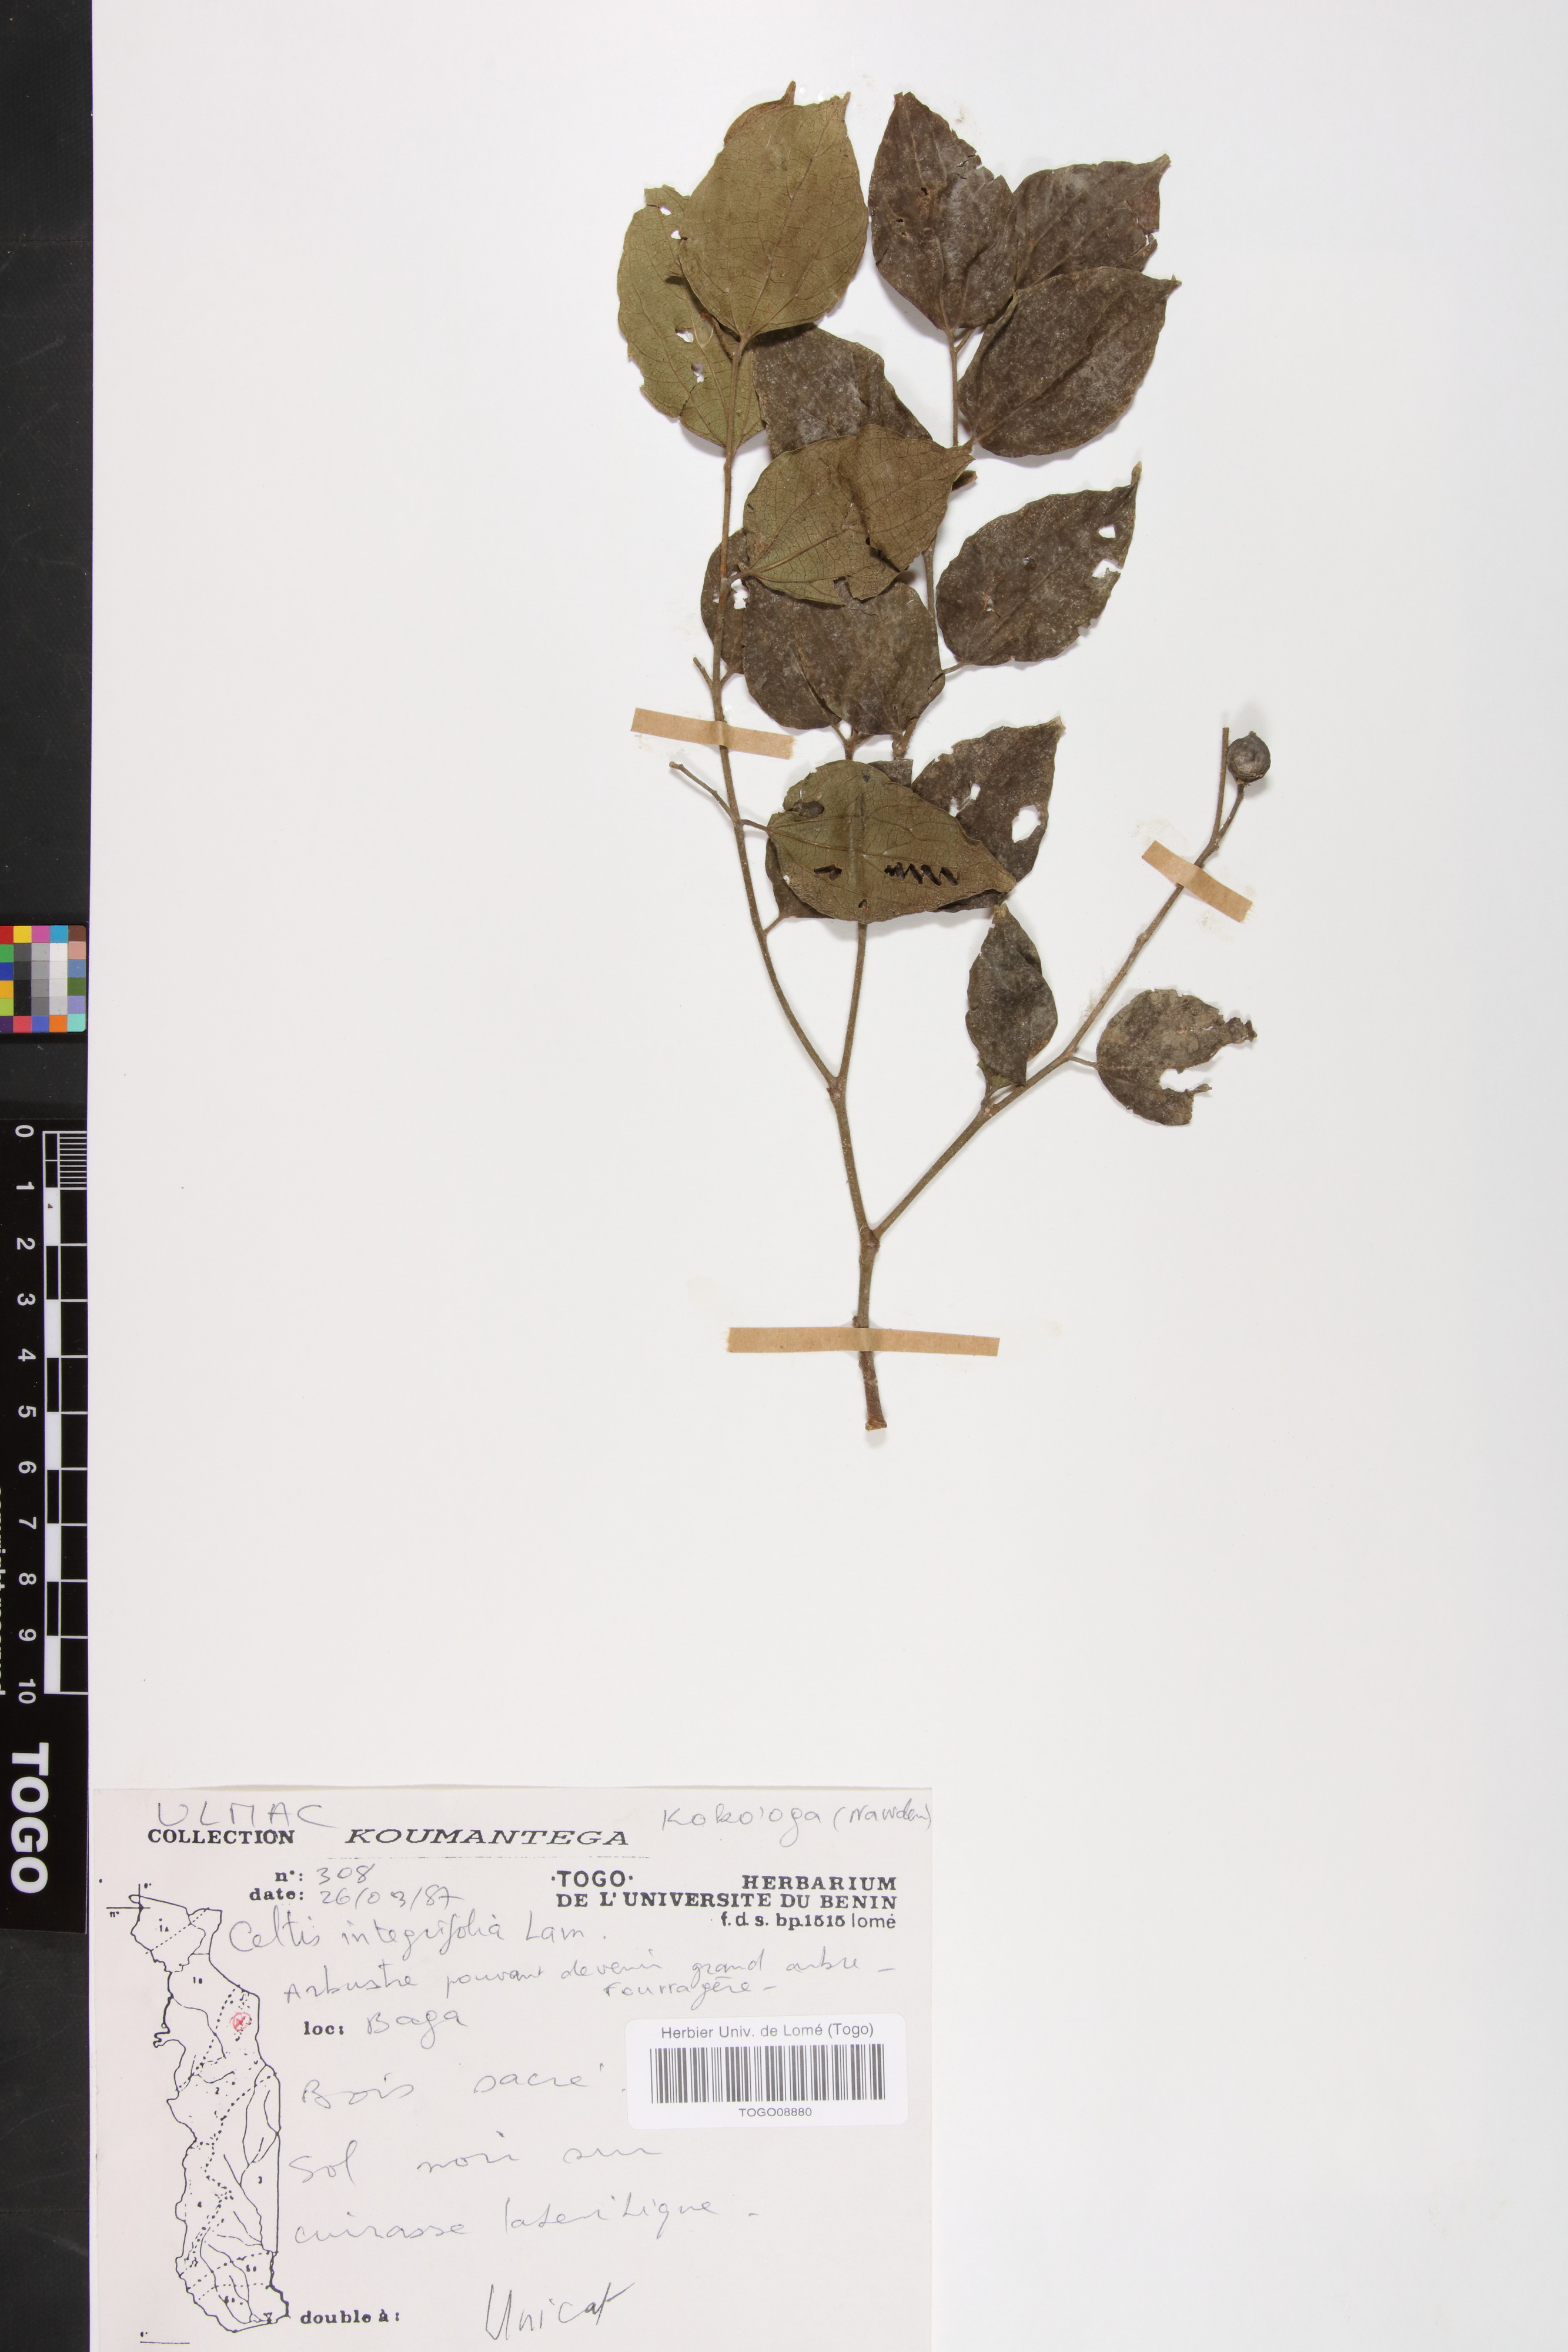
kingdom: Plantae
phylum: Tracheophyta
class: Magnoliopsida
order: Rosales
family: Cannabaceae
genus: Celtis
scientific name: Celtis toka
